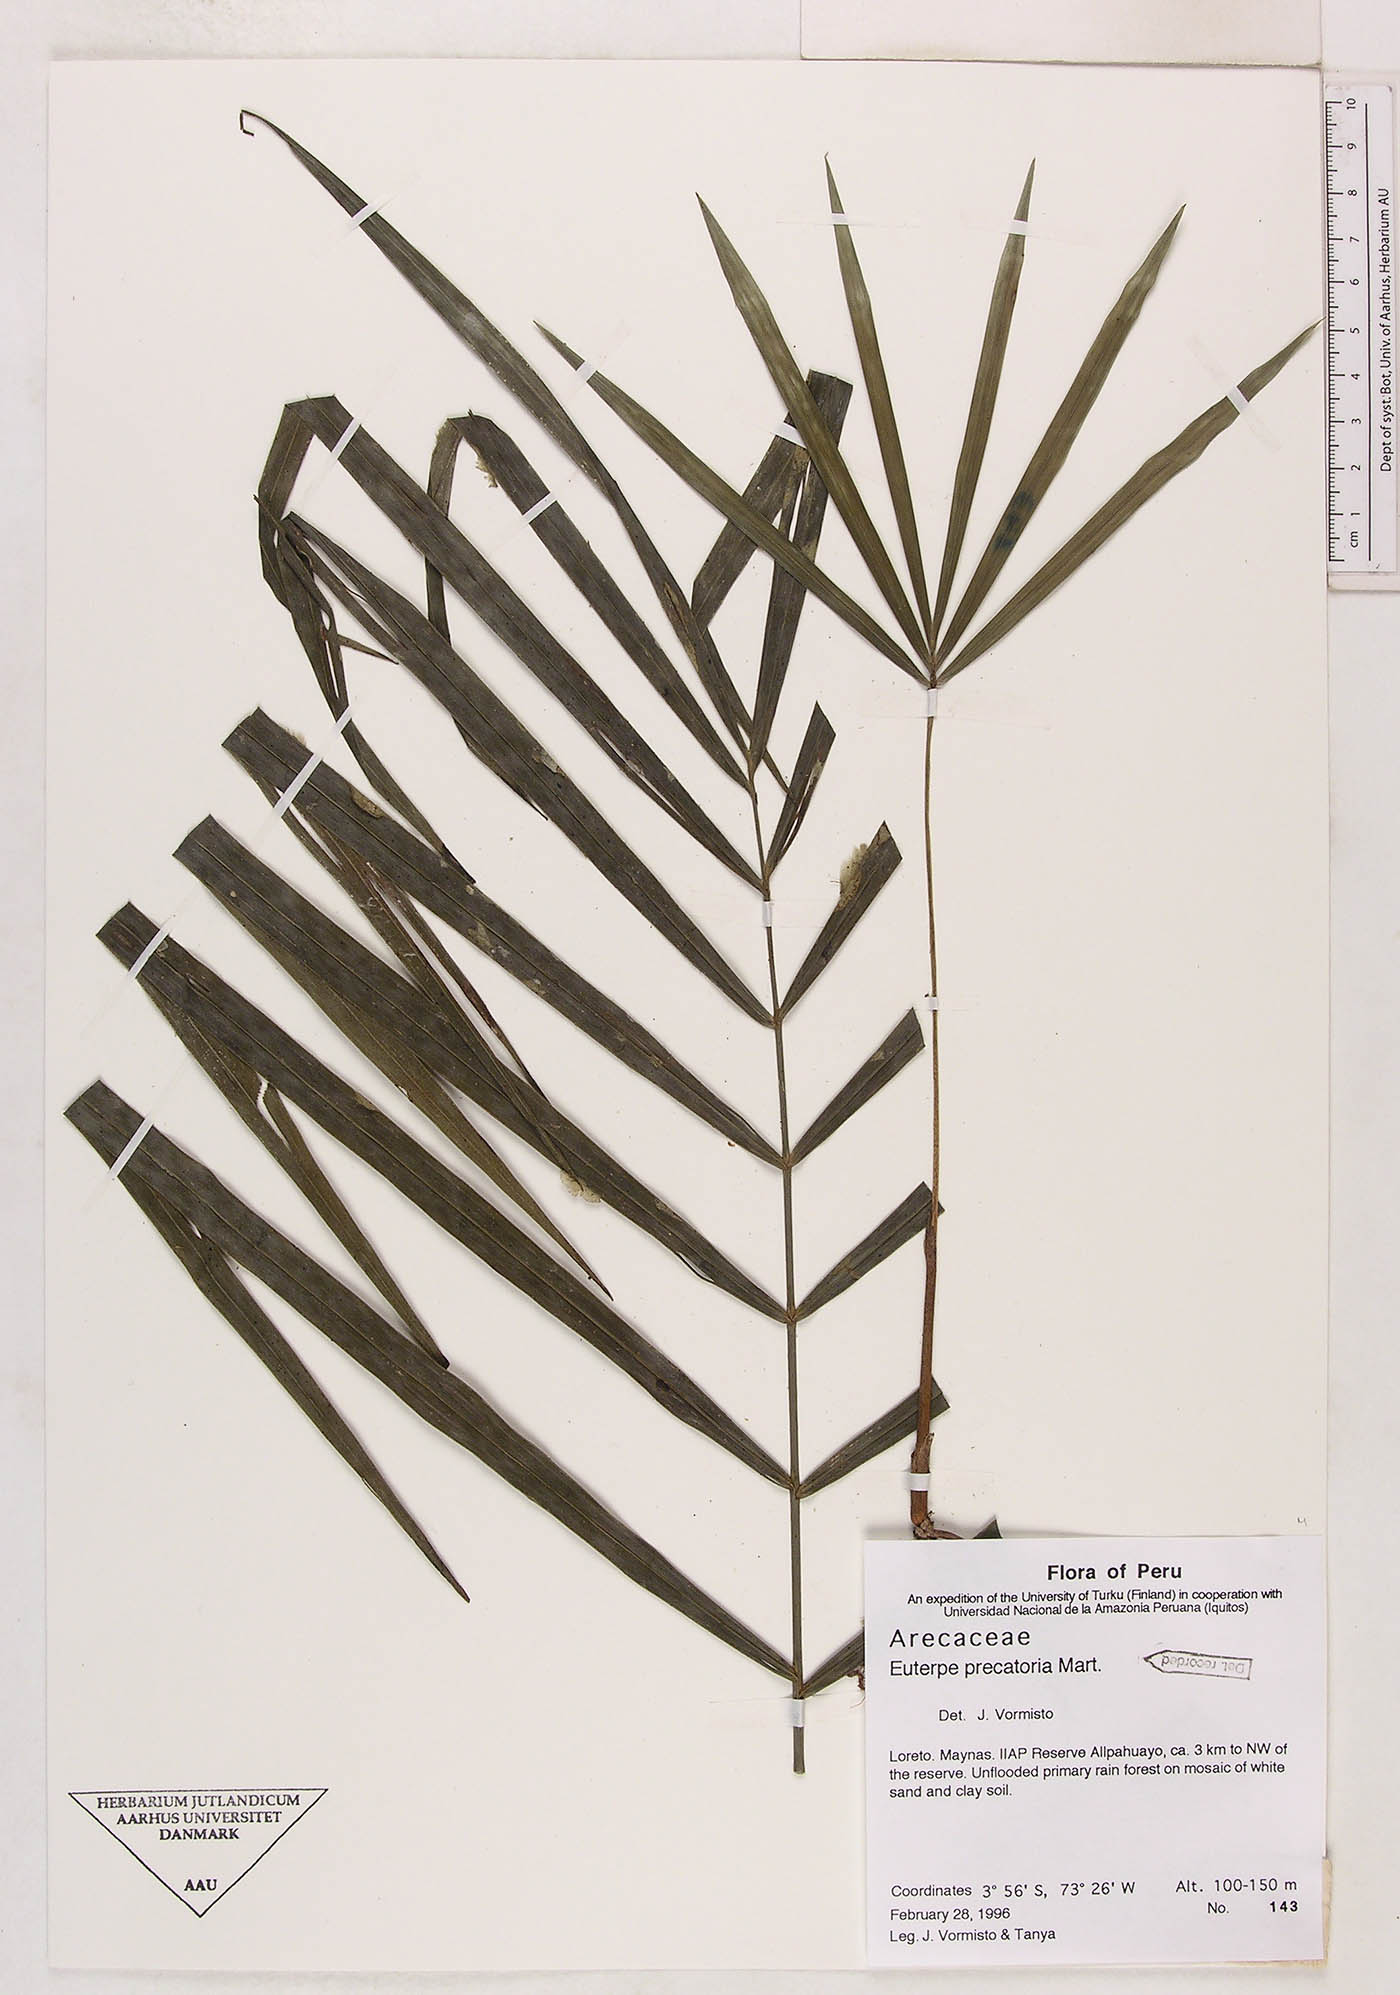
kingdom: Plantae
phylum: Tracheophyta
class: Liliopsida
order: Arecales
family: Arecaceae
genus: Euterpe
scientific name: Euterpe precatoria
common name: Mountain-cabbage
